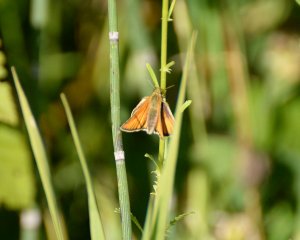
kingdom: Animalia
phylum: Arthropoda
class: Insecta
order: Lepidoptera
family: Hesperiidae
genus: Thymelicus
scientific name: Thymelicus lineola
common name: European Skipper
